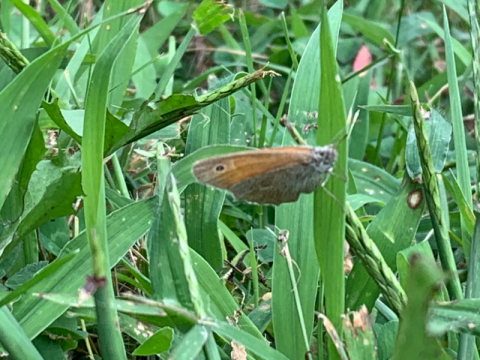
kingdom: Animalia
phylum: Arthropoda
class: Insecta
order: Lepidoptera
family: Nymphalidae
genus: Coenonympha
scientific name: Coenonympha california
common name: California Ringlet
